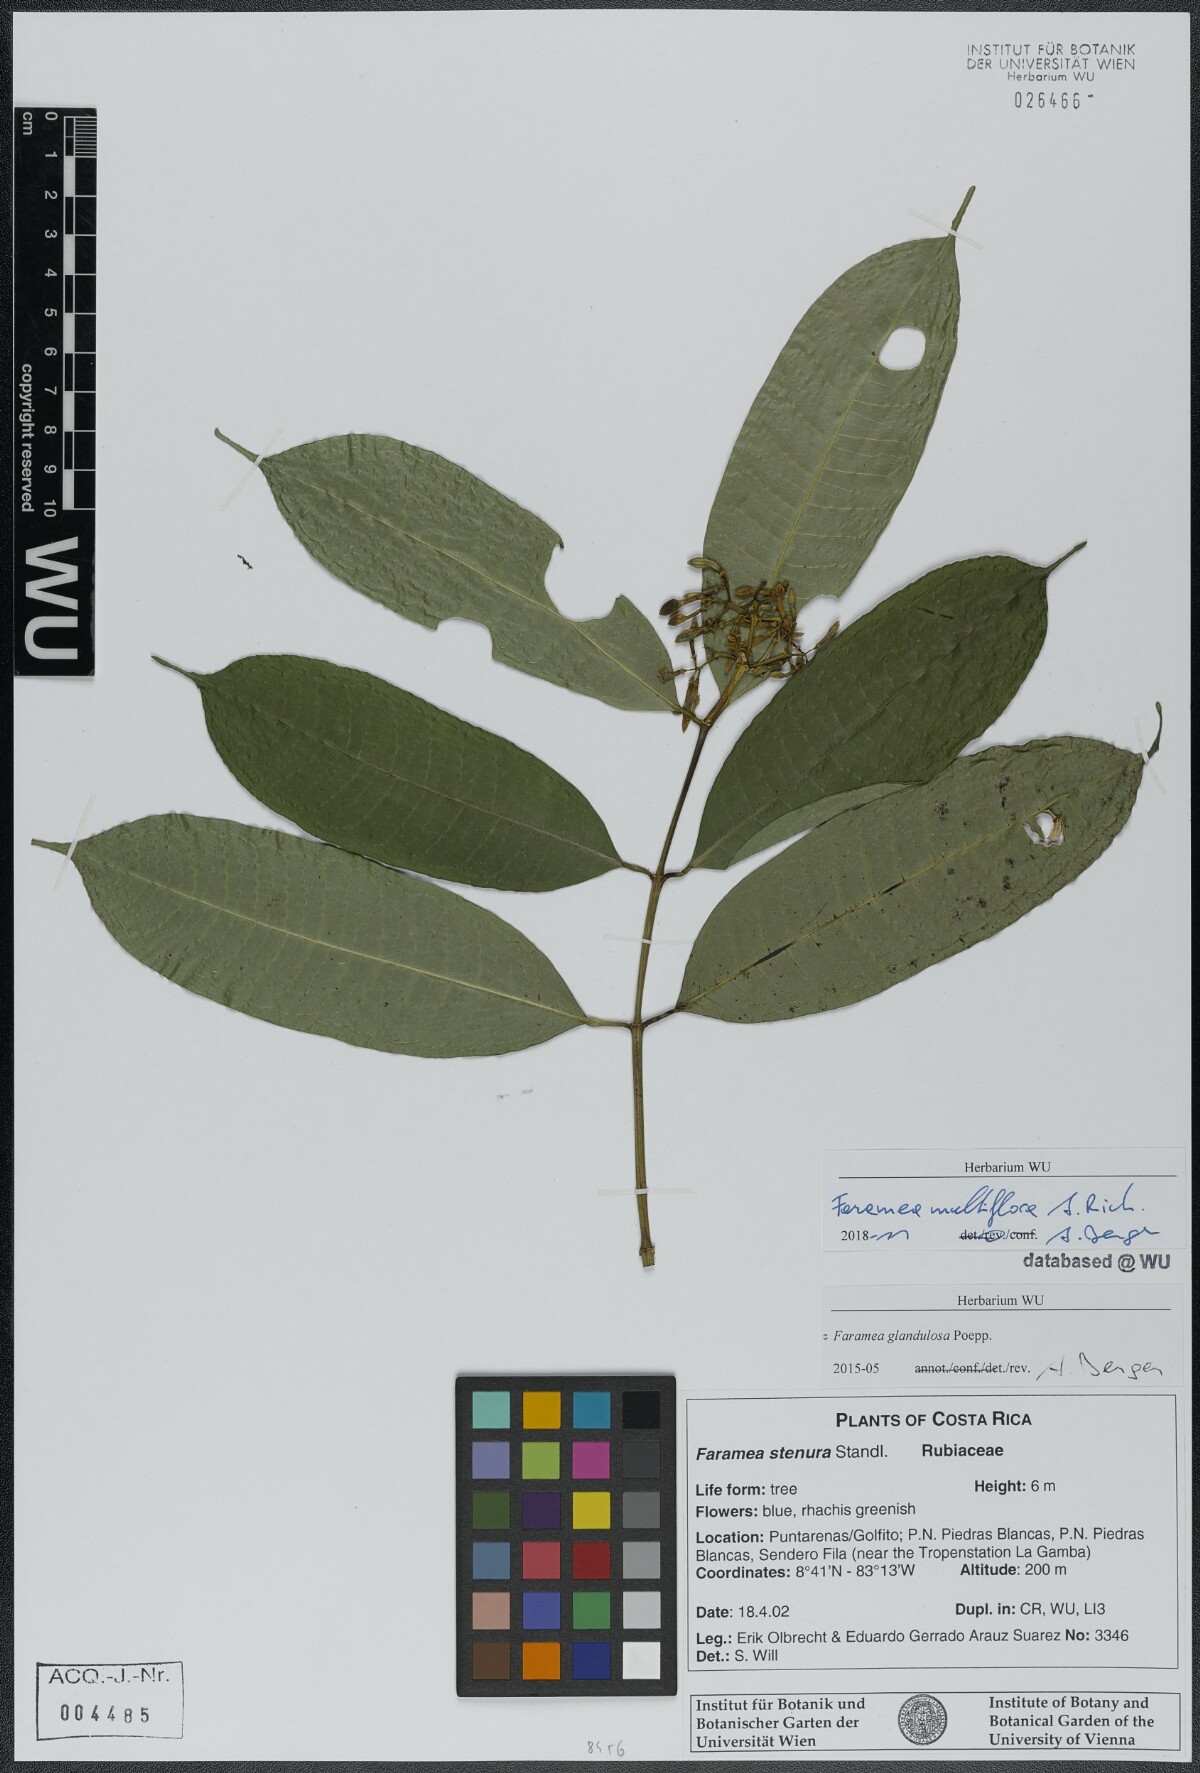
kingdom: Plantae
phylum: Tracheophyta
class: Magnoliopsida
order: Gentianales
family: Rubiaceae
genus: Faramea
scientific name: Faramea multiflora
